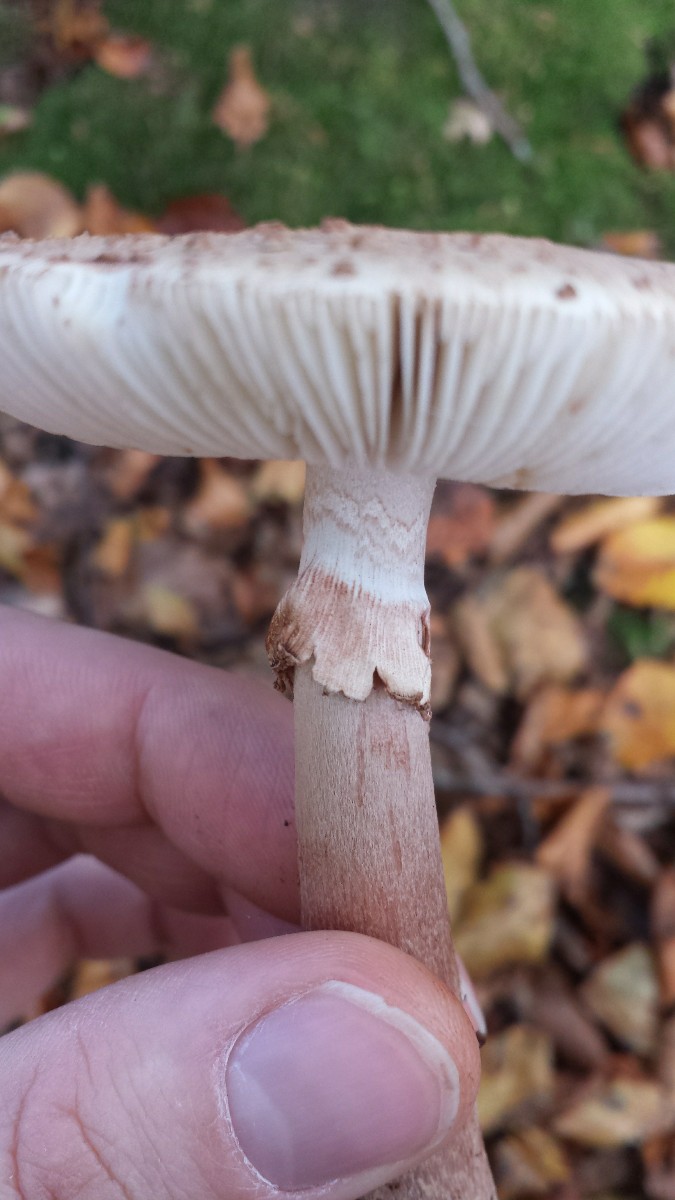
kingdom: Fungi
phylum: Basidiomycota
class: Agaricomycetes
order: Agaricales
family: Amanitaceae
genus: Amanita
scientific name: Amanita rubescens
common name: rødmende fluesvamp
